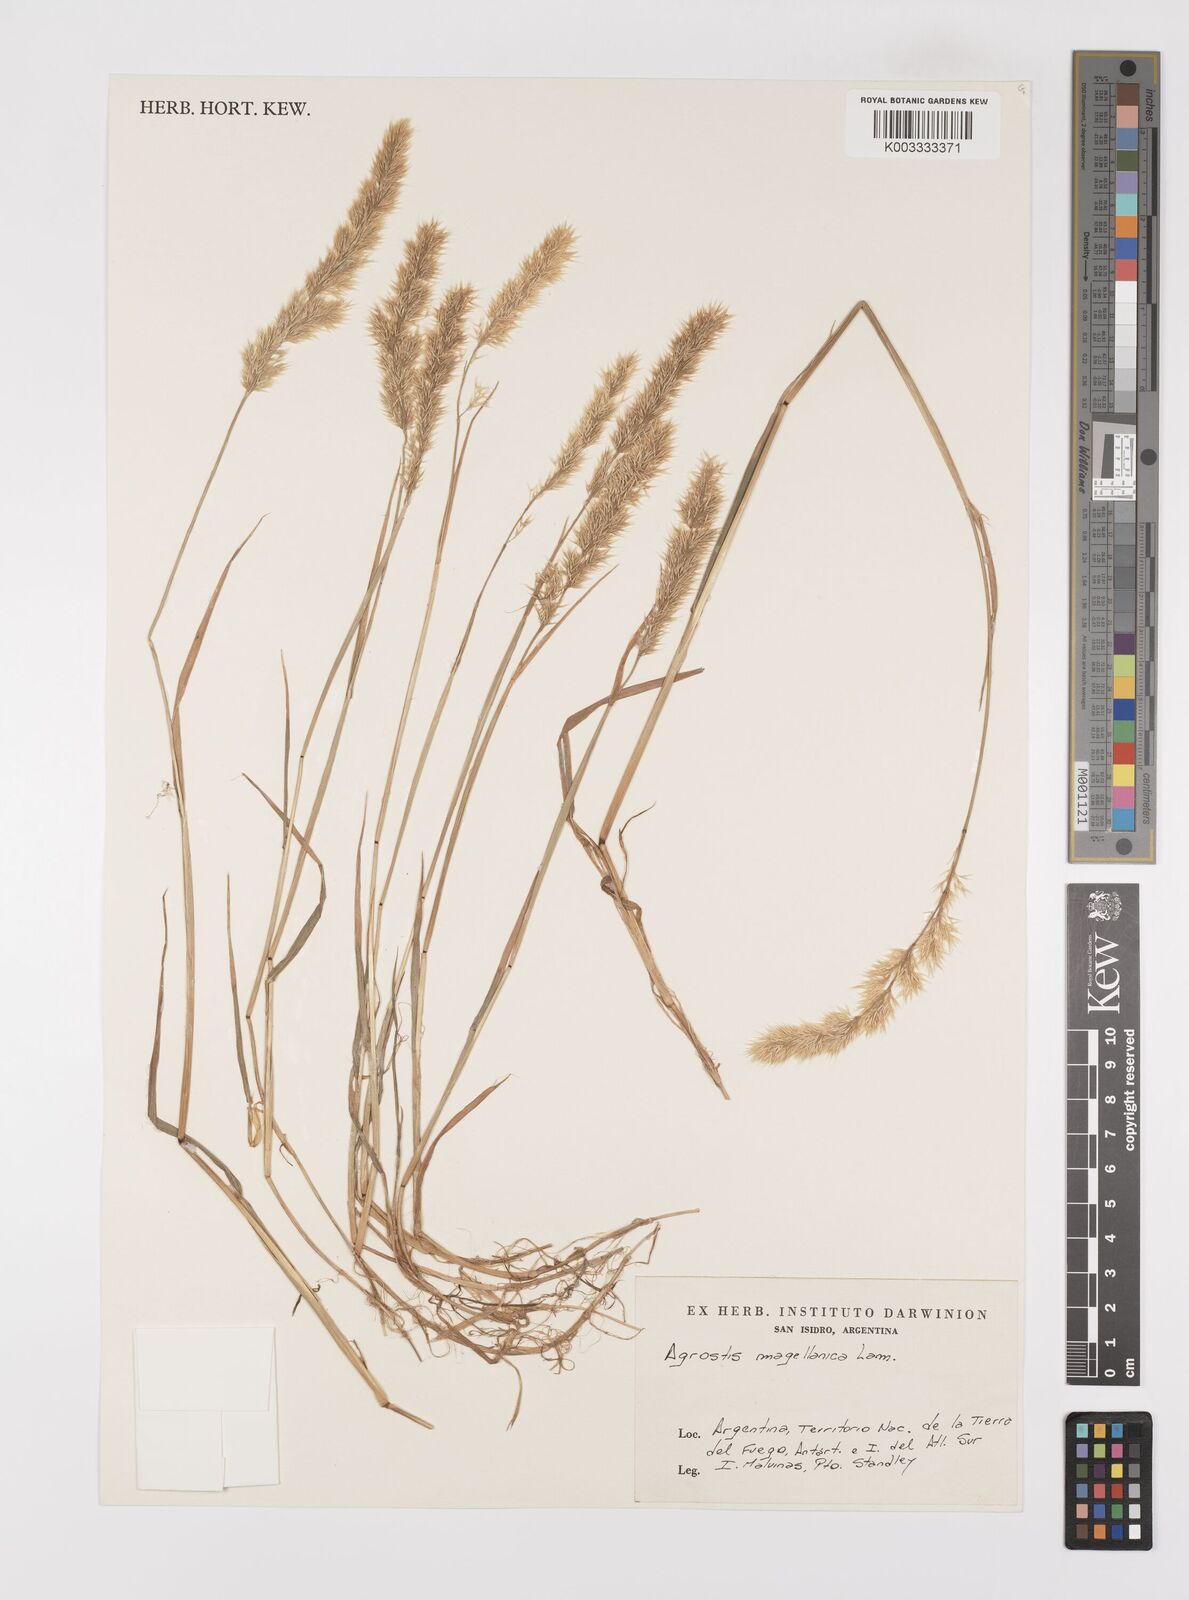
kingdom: Plantae
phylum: Tracheophyta
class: Liliopsida
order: Poales
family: Poaceae
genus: Polypogon
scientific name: Polypogon magellanicus
